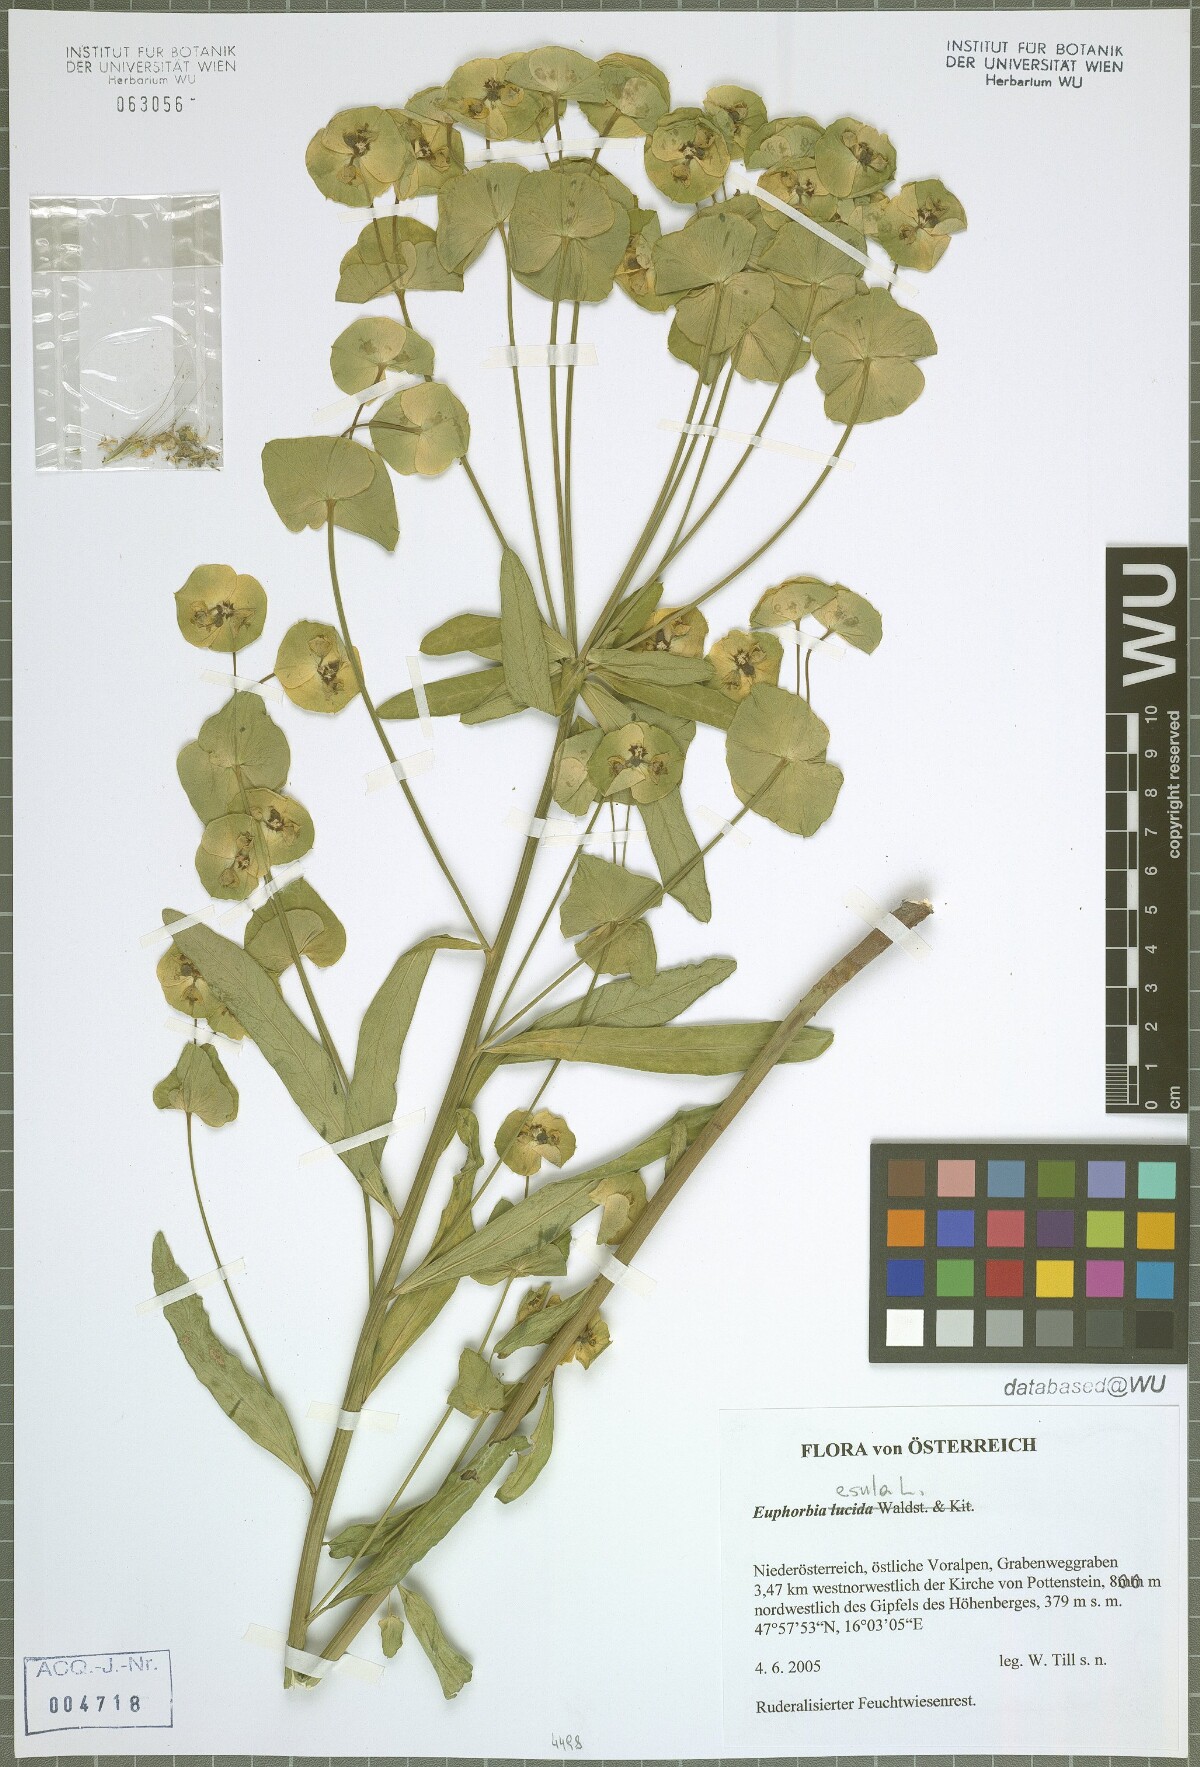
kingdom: Plantae
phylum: Tracheophyta
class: Magnoliopsida
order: Malpighiales
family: Euphorbiaceae
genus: Euphorbia
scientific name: Euphorbia esula
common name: Leafy spurge
